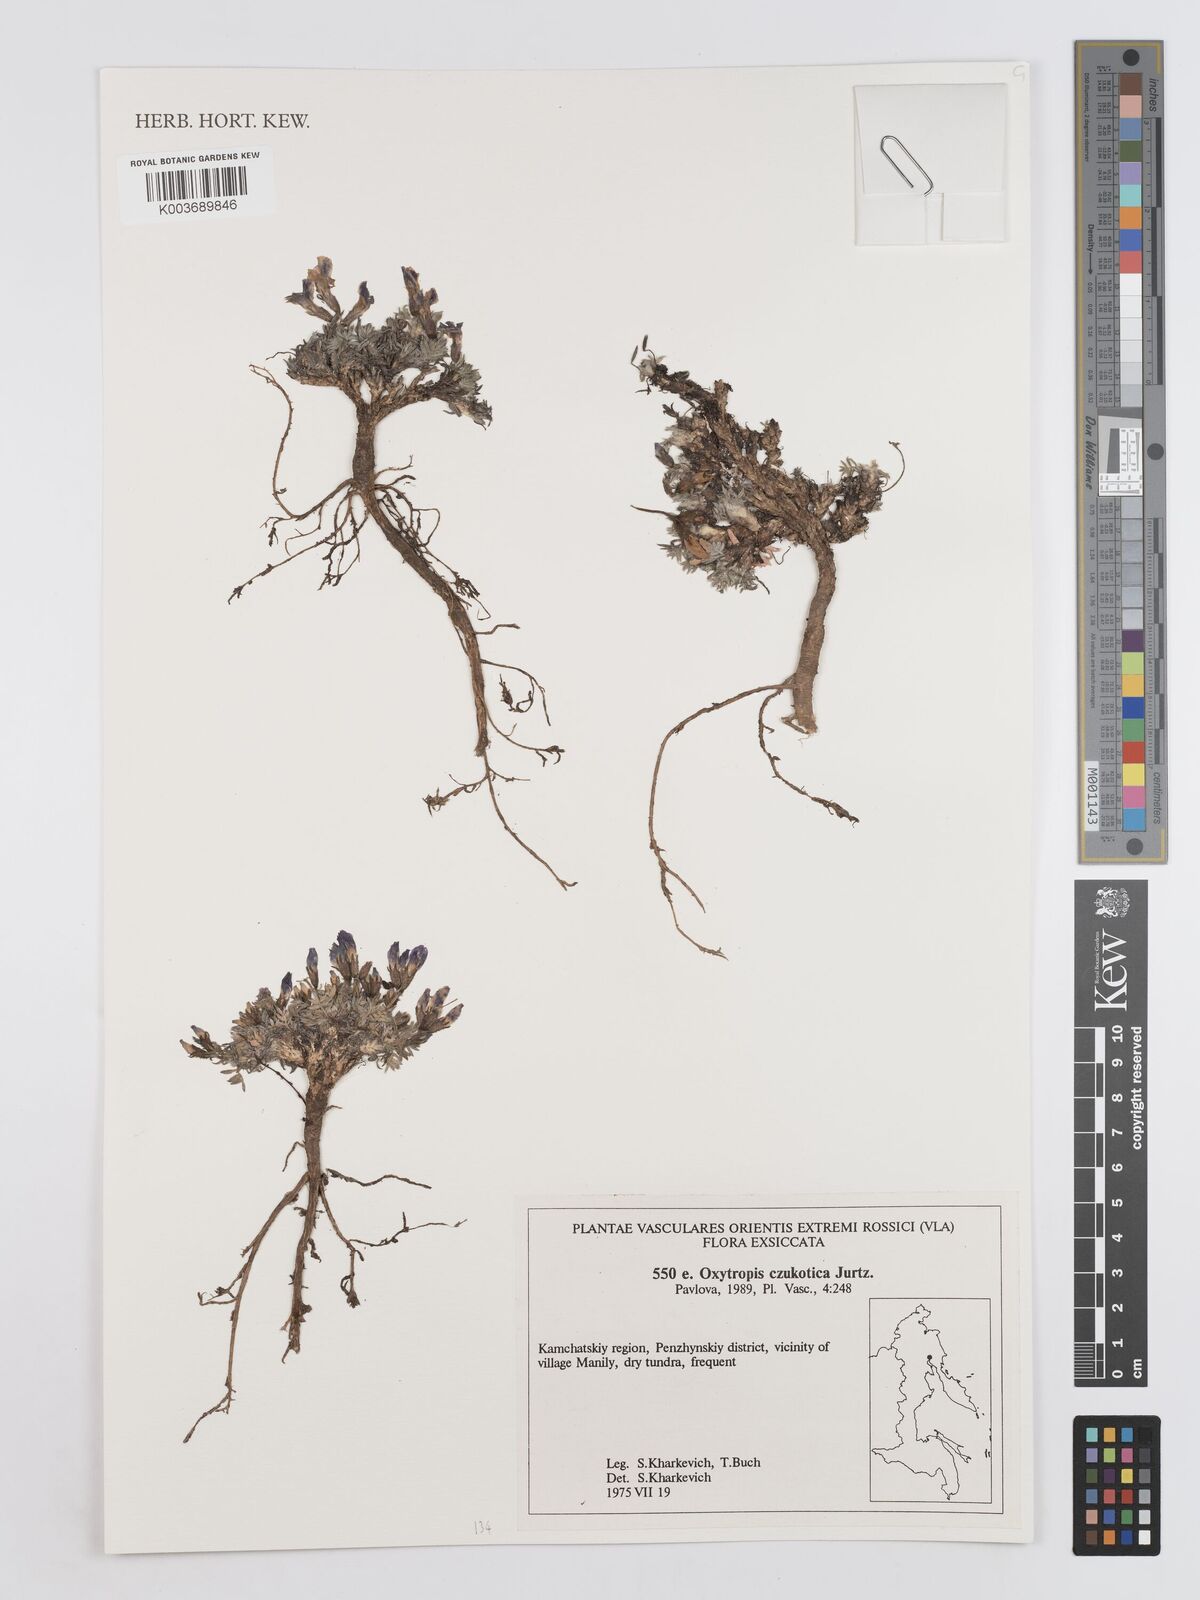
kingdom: Plantae
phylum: Tracheophyta
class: Magnoliopsida
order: Fabales
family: Fabaceae
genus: Oxytropis
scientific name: Oxytropis czukotica
